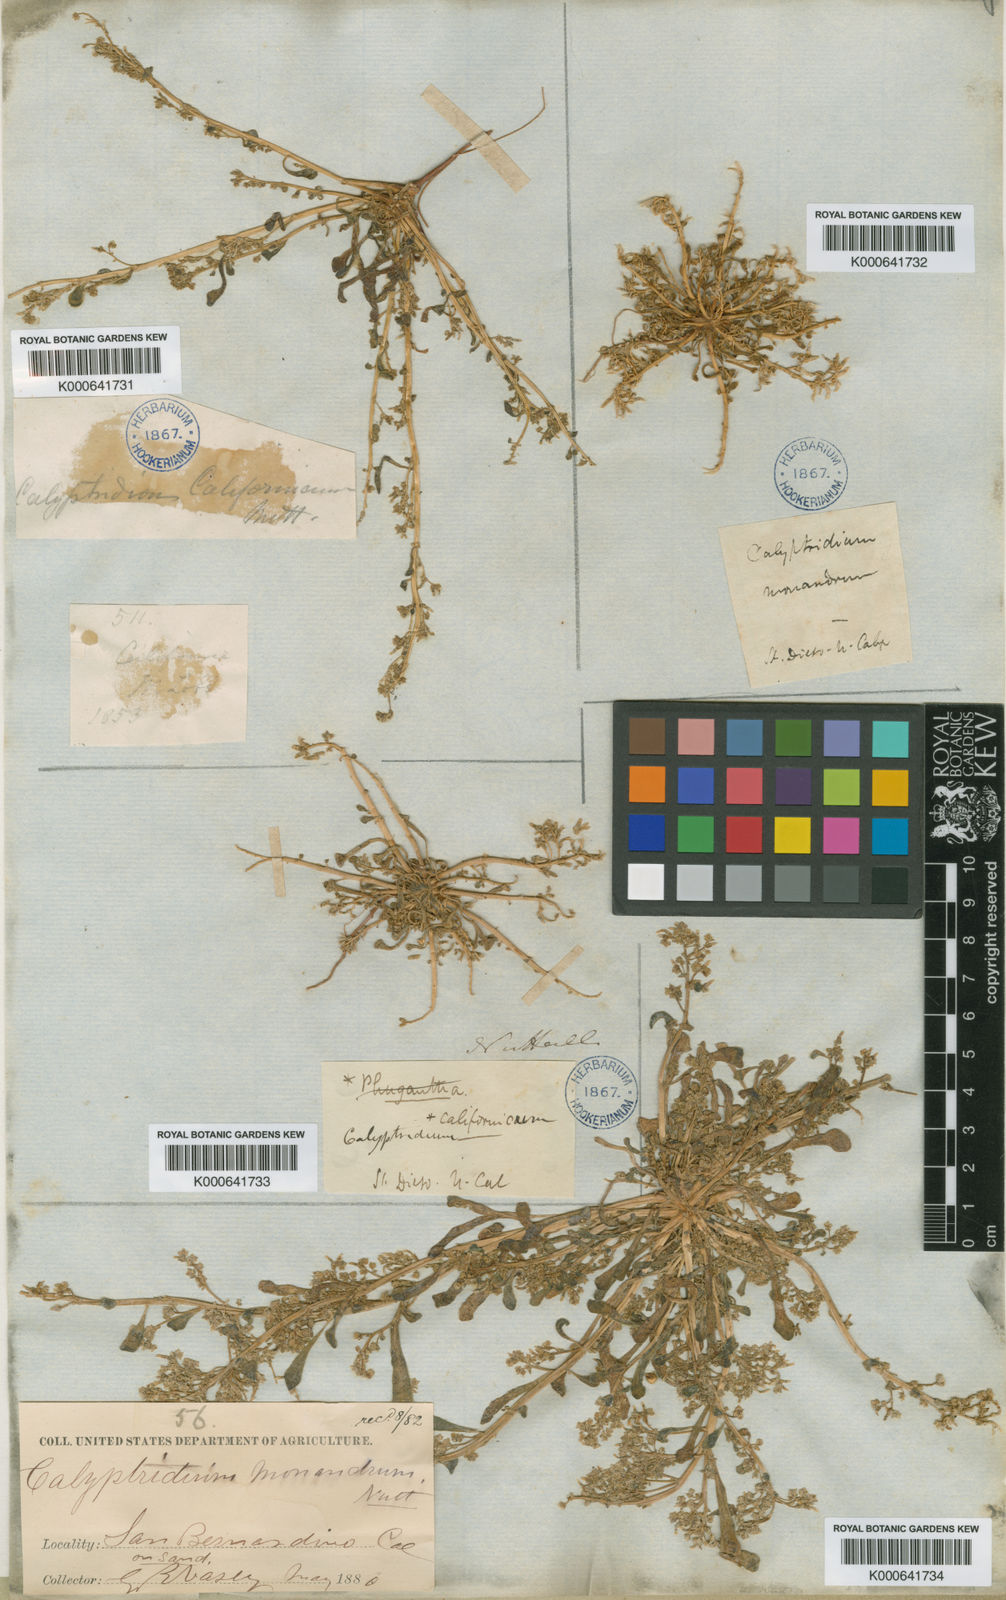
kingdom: Plantae
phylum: Tracheophyta
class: Magnoliopsida
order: Caryophyllales
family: Montiaceae
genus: Calyptridium
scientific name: Calyptridium monandrum
